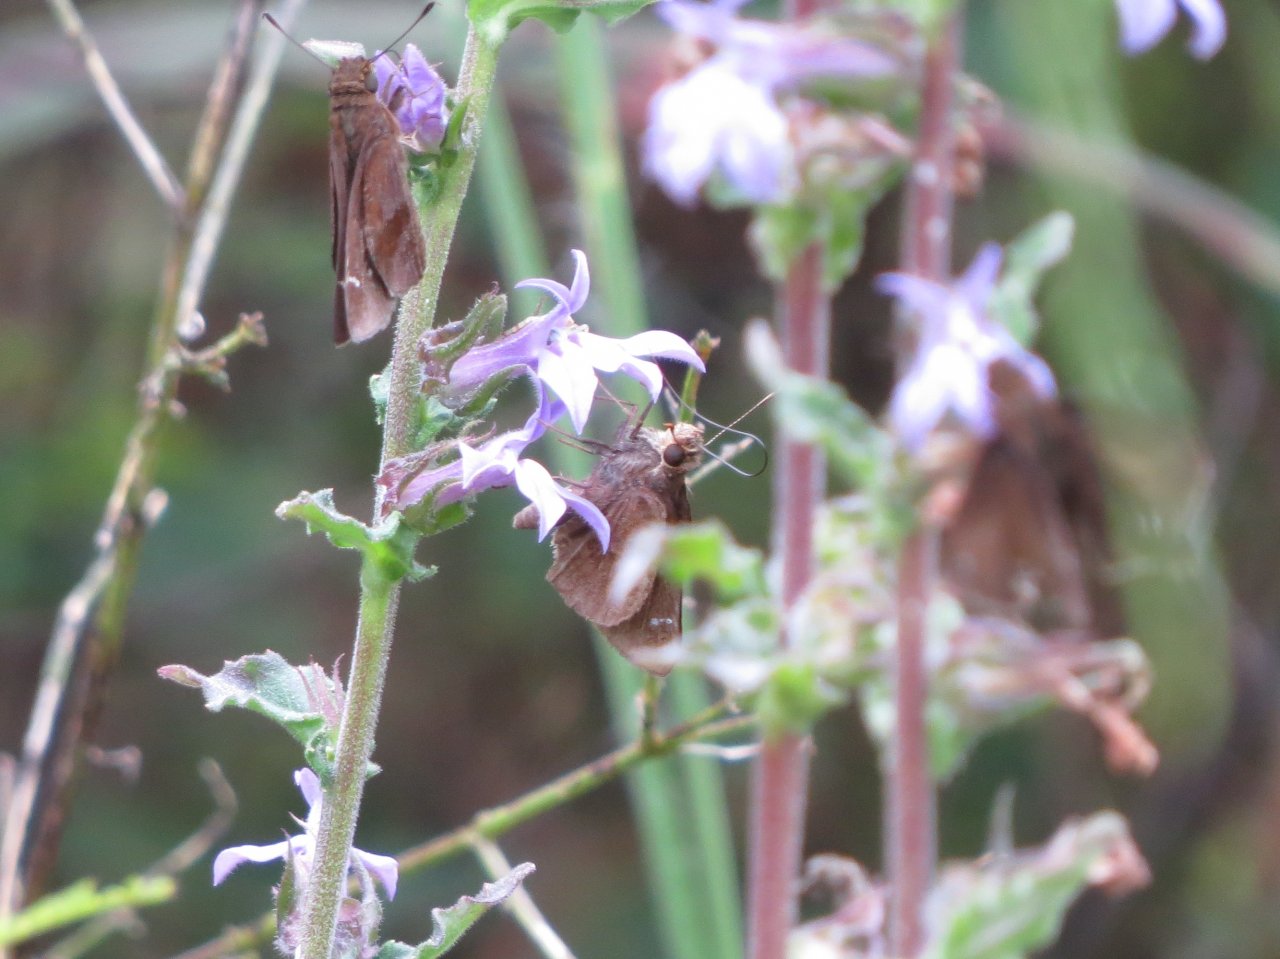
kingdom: Animalia
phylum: Arthropoda
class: Insecta
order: Lepidoptera
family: Hesperiidae
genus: Lerema
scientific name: Lerema accius
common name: Clouded Skipper
